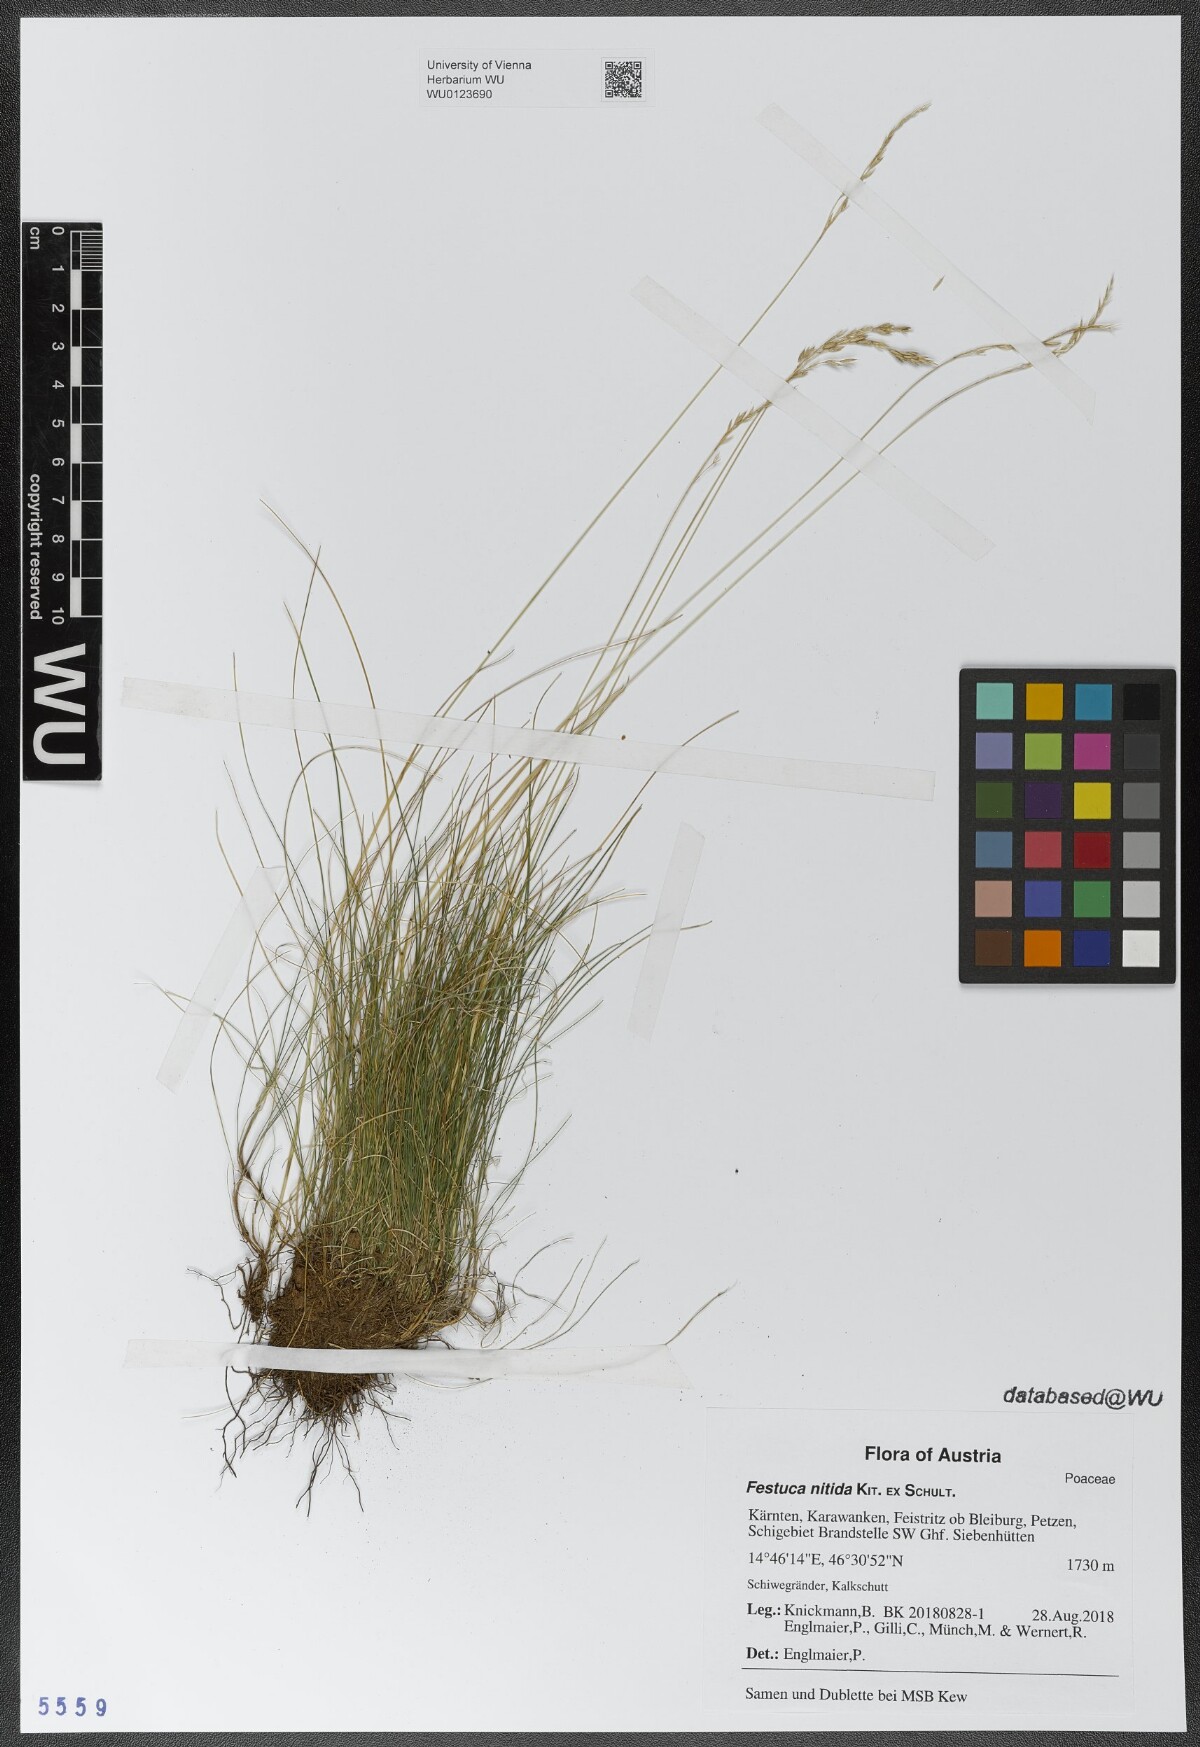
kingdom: Plantae
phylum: Tracheophyta
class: Liliopsida
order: Poales
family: Poaceae
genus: Festuca
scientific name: Festuca nitida
